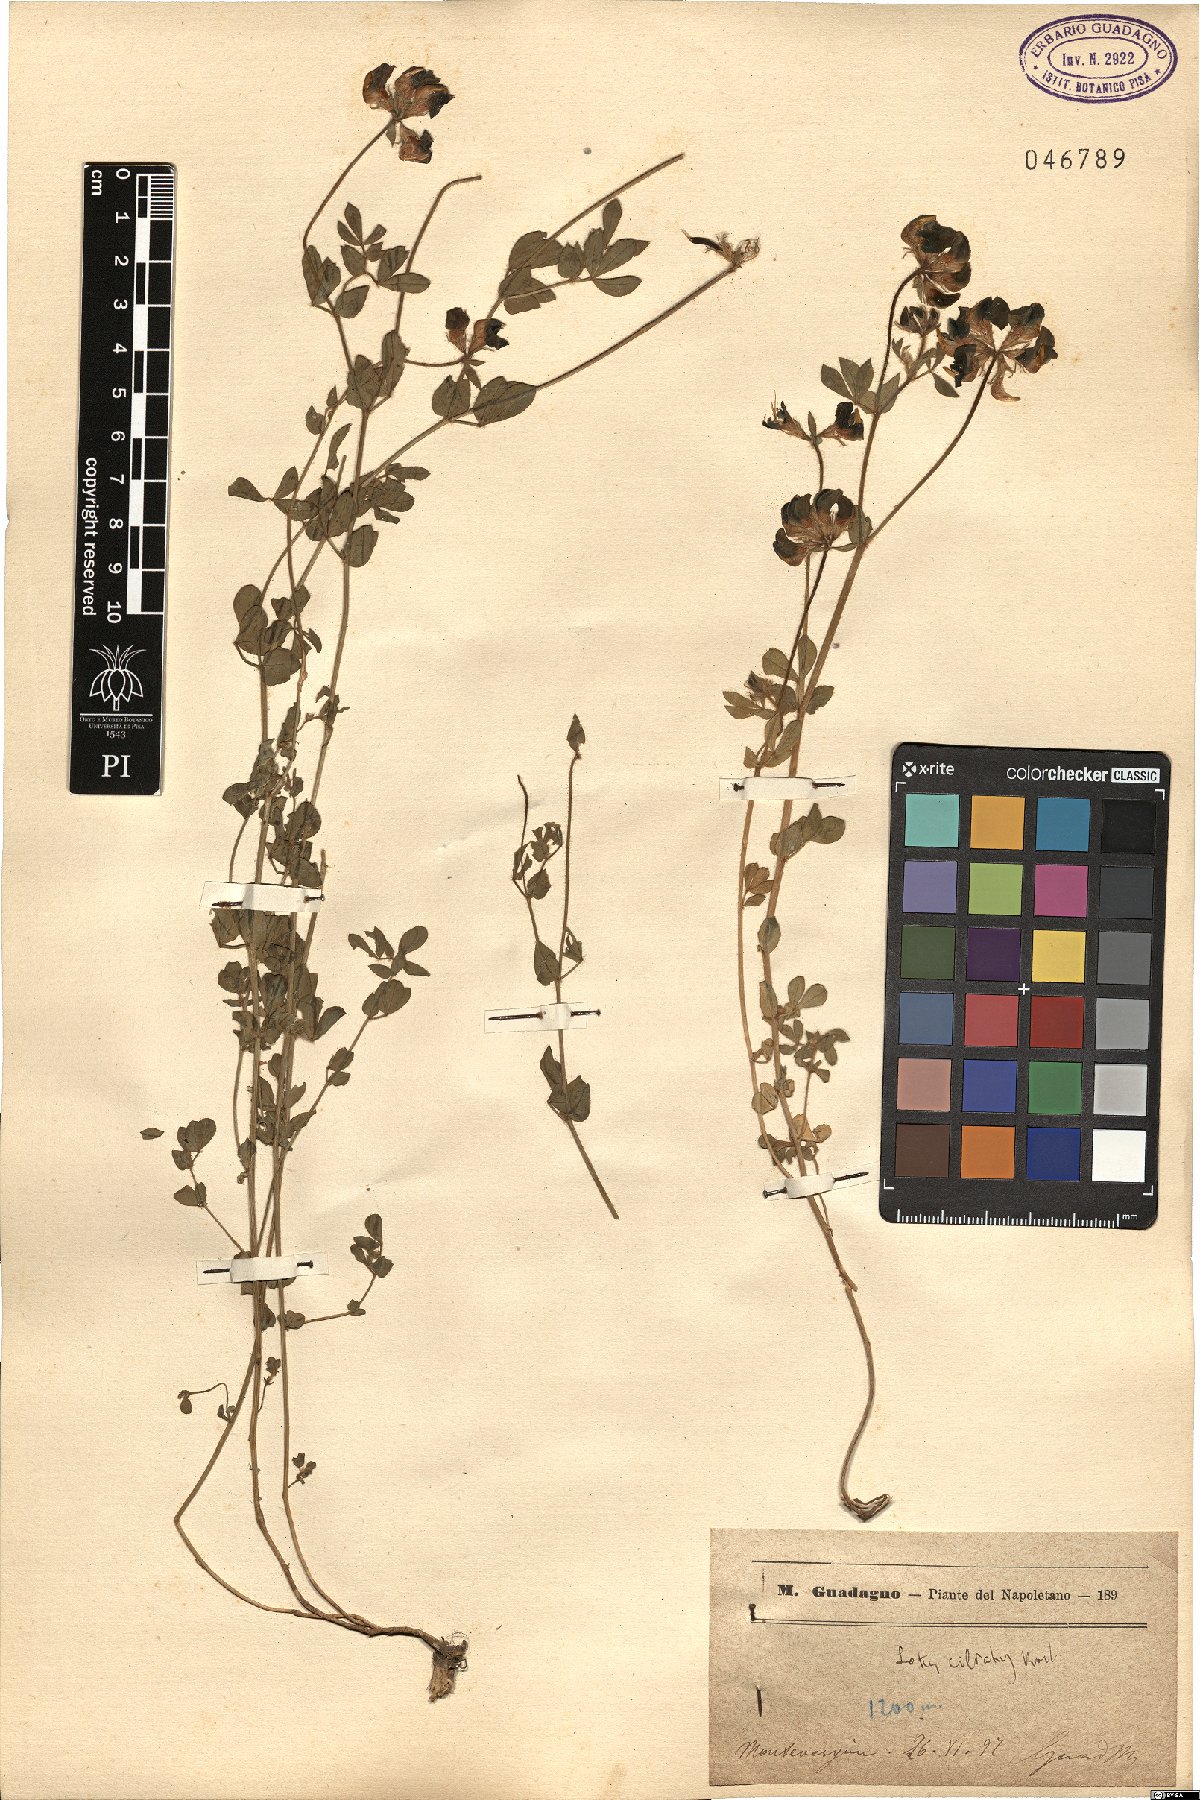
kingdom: Plantae
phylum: Tracheophyta
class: Magnoliopsida
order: Fabales
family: Fabaceae
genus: Lotus
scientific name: Lotus ciliatus
